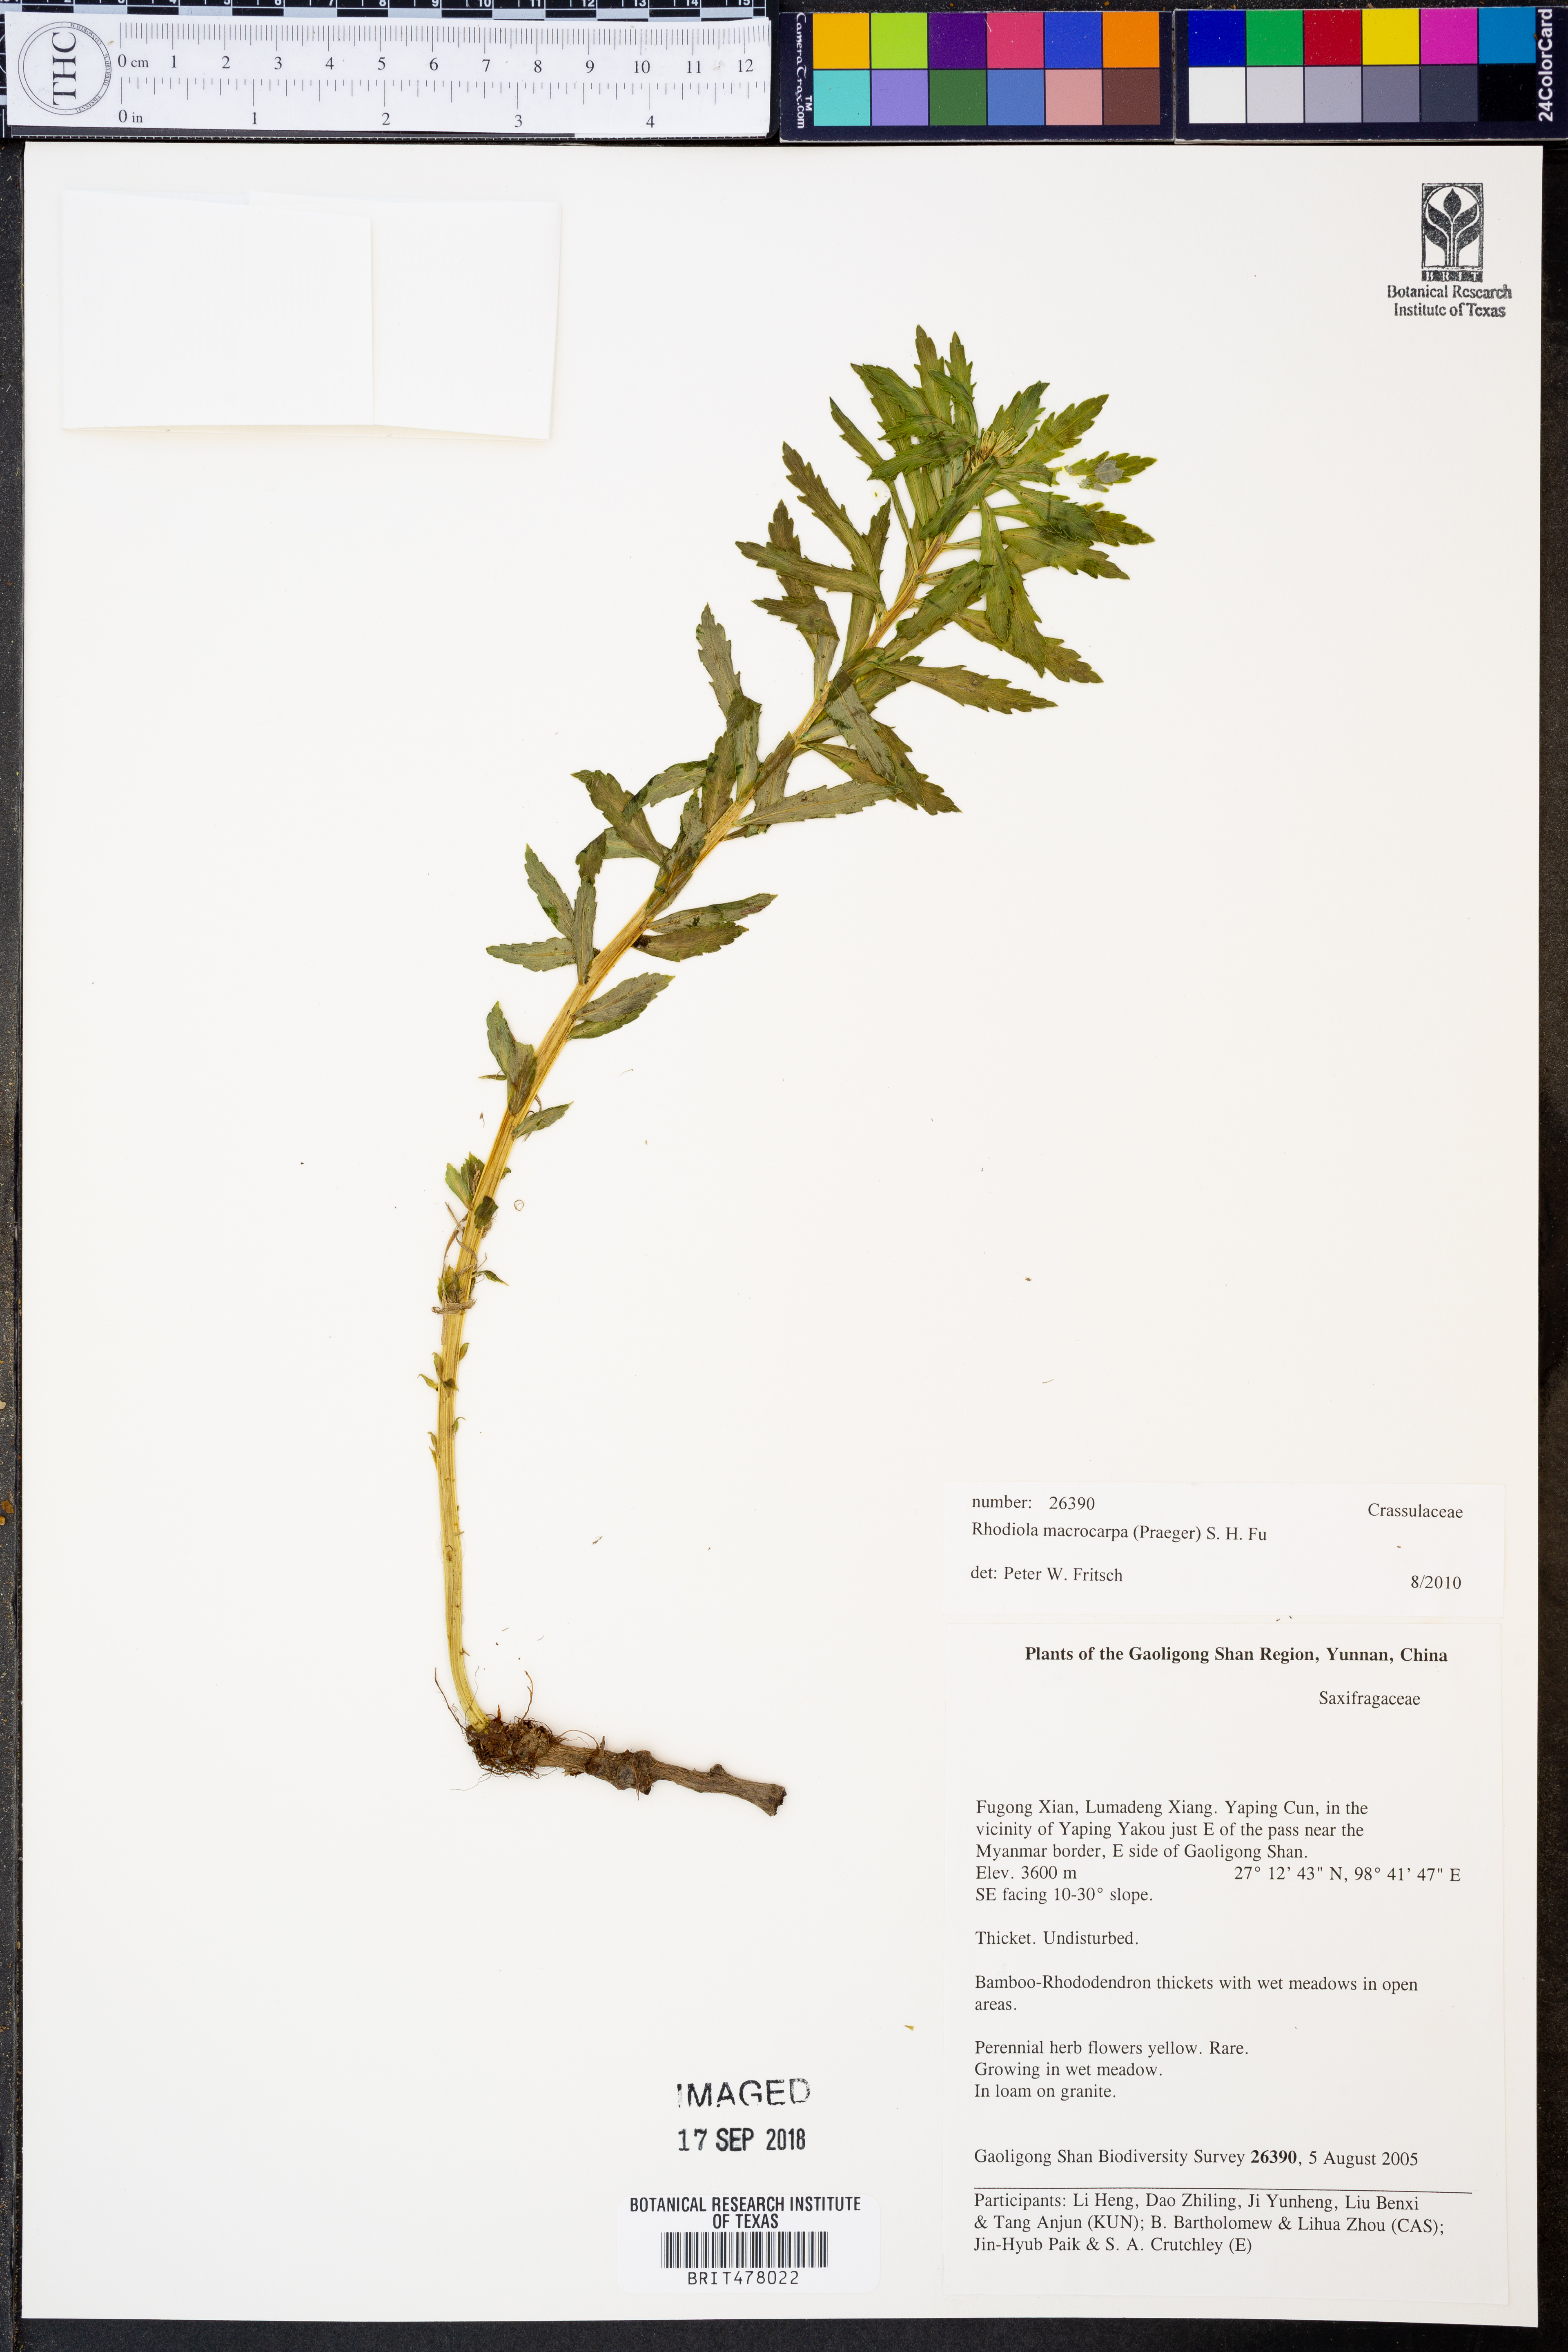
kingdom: Plantae
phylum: Tracheophyta
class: Magnoliopsida
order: Saxifragales
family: Crassulaceae
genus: Rhodiola
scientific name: Rhodiola macrocarpa
